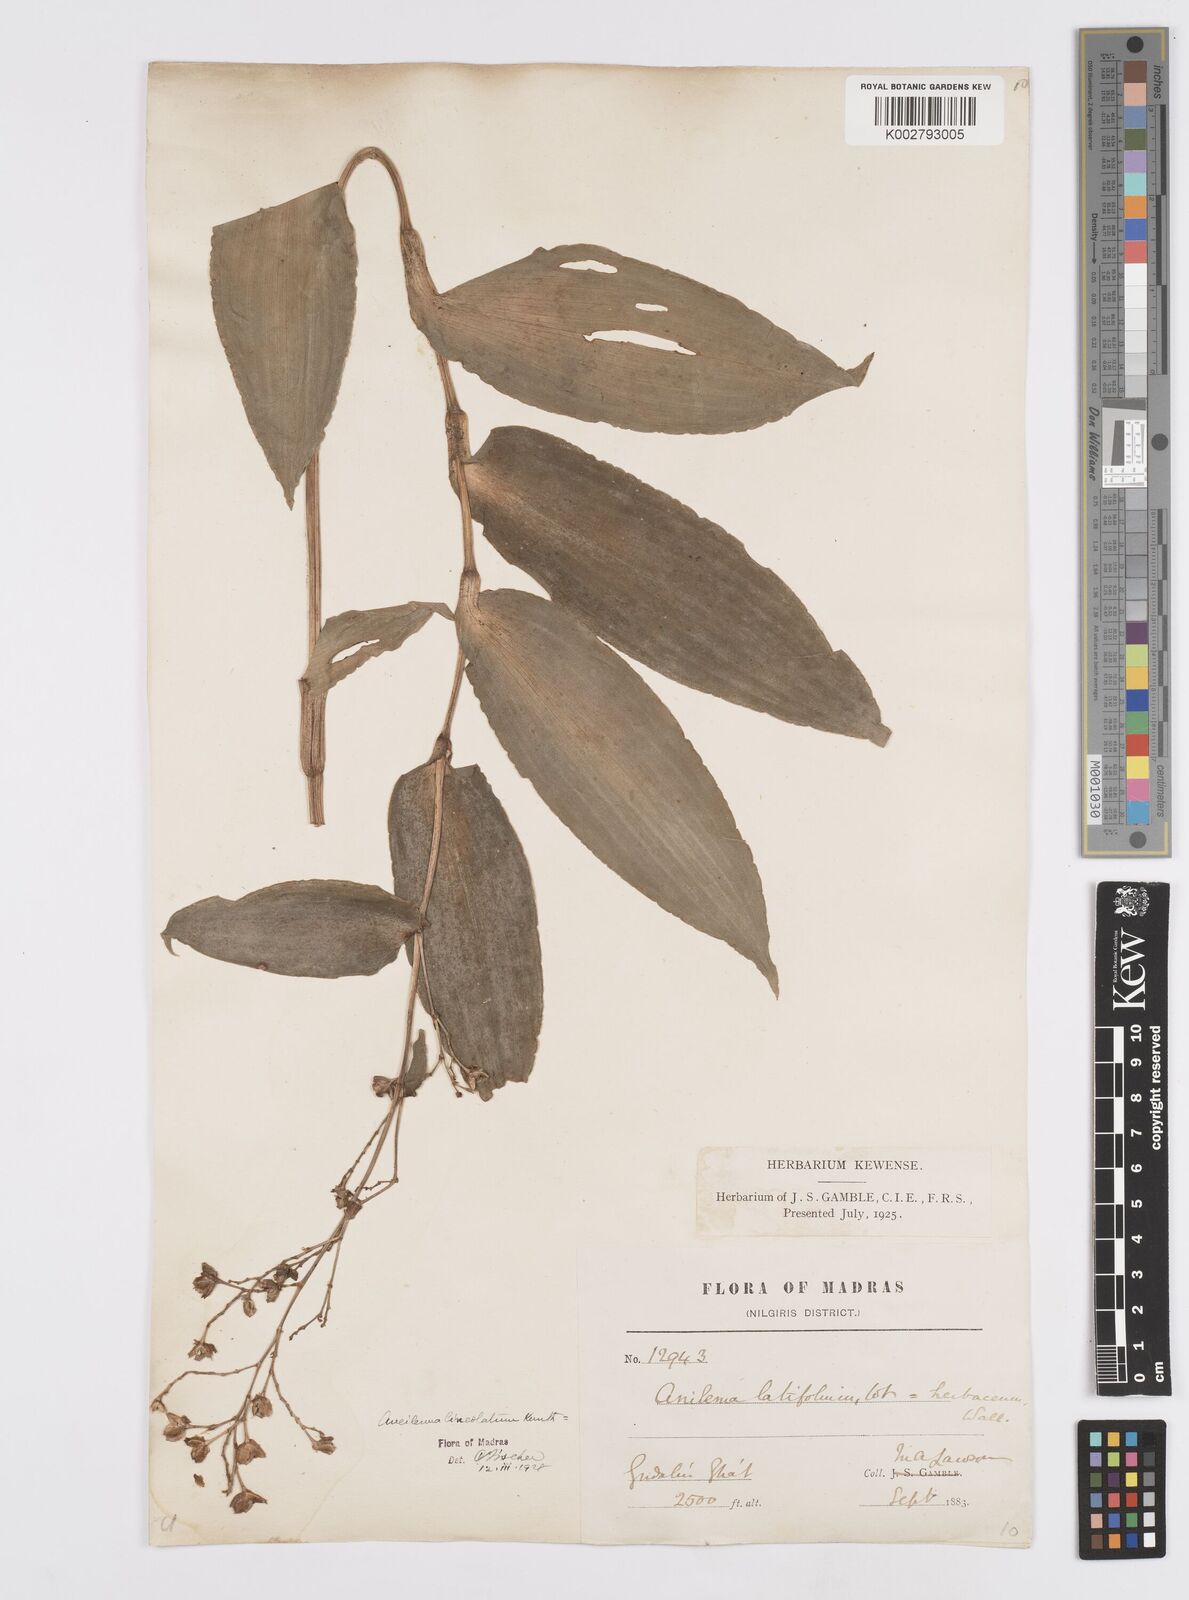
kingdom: Plantae
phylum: Tracheophyta
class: Liliopsida
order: Commelinales
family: Commelinaceae
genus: Murdannia
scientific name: Murdannia
